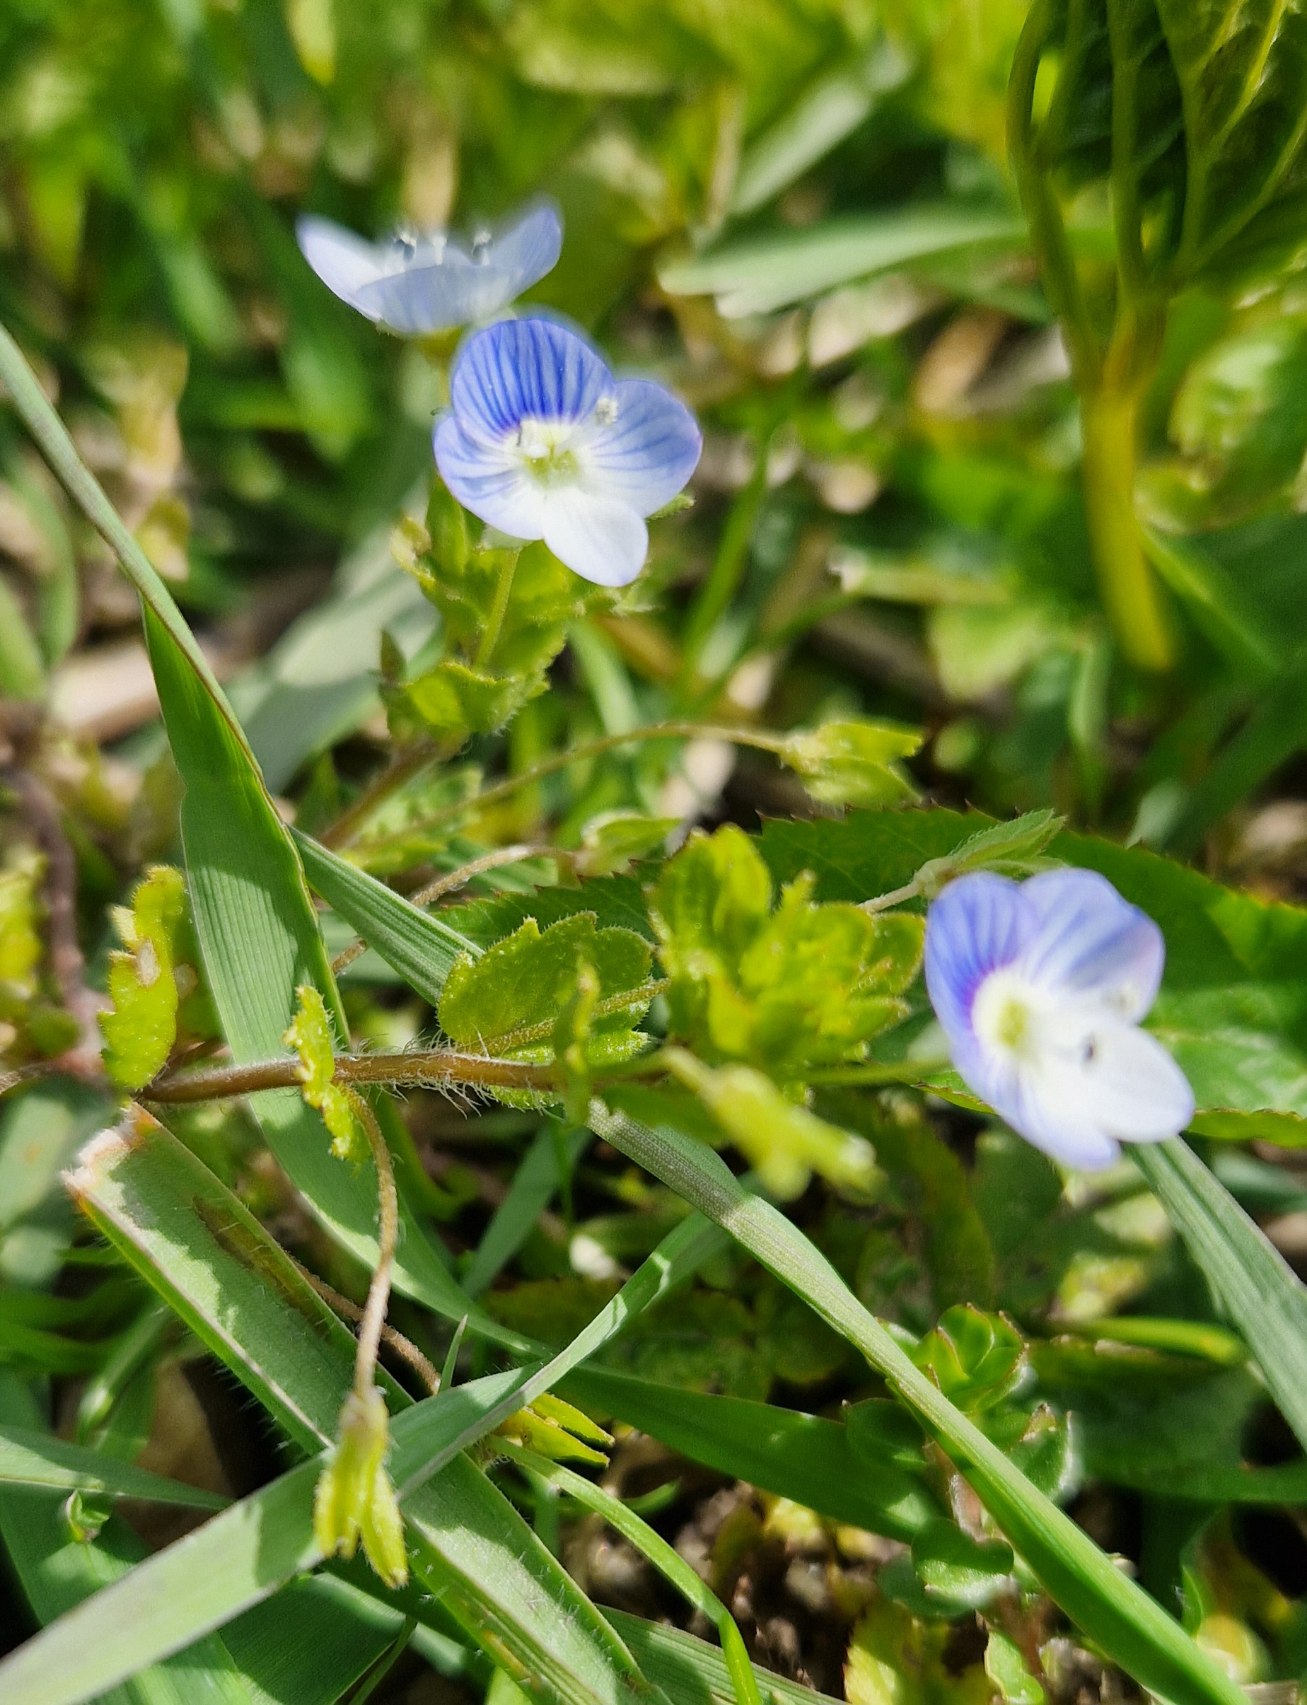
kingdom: Plantae
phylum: Tracheophyta
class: Magnoliopsida
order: Lamiales
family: Plantaginaceae
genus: Veronica
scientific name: Veronica persica
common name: Storkronet ærenpris
